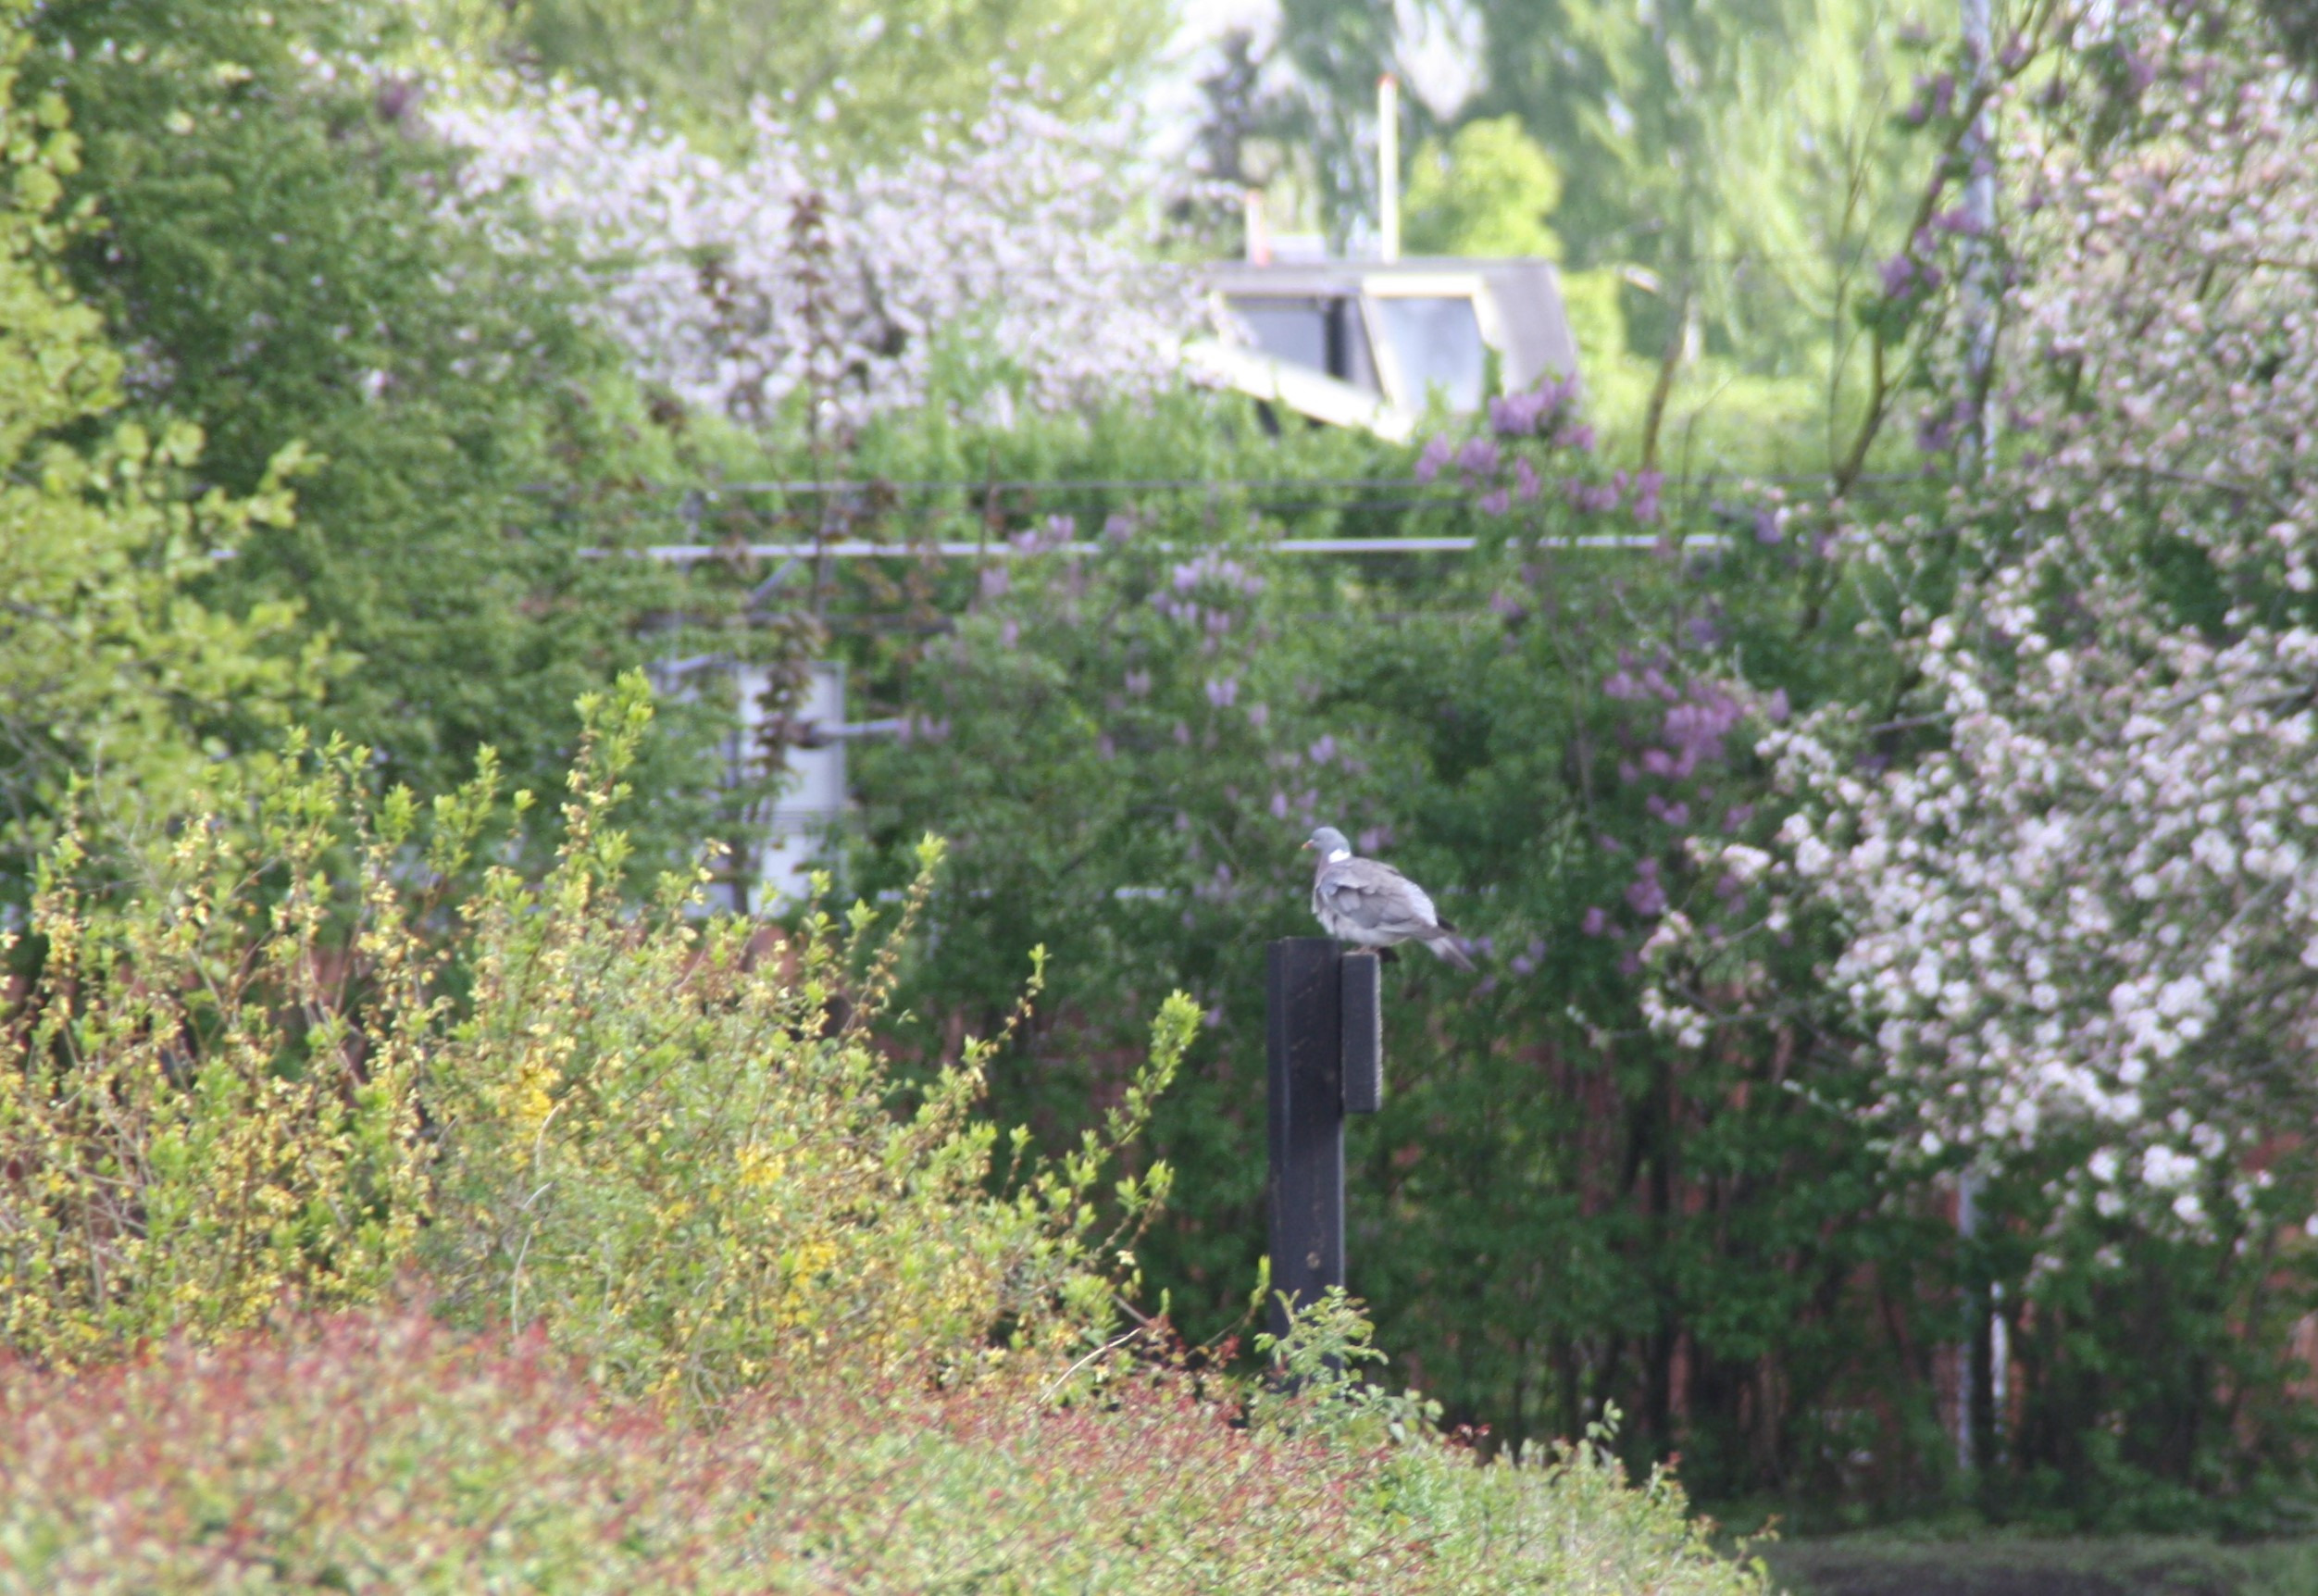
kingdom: Animalia
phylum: Chordata
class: Aves
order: Columbiformes
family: Columbidae
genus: Columba
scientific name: Columba palumbus
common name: Ringdue
